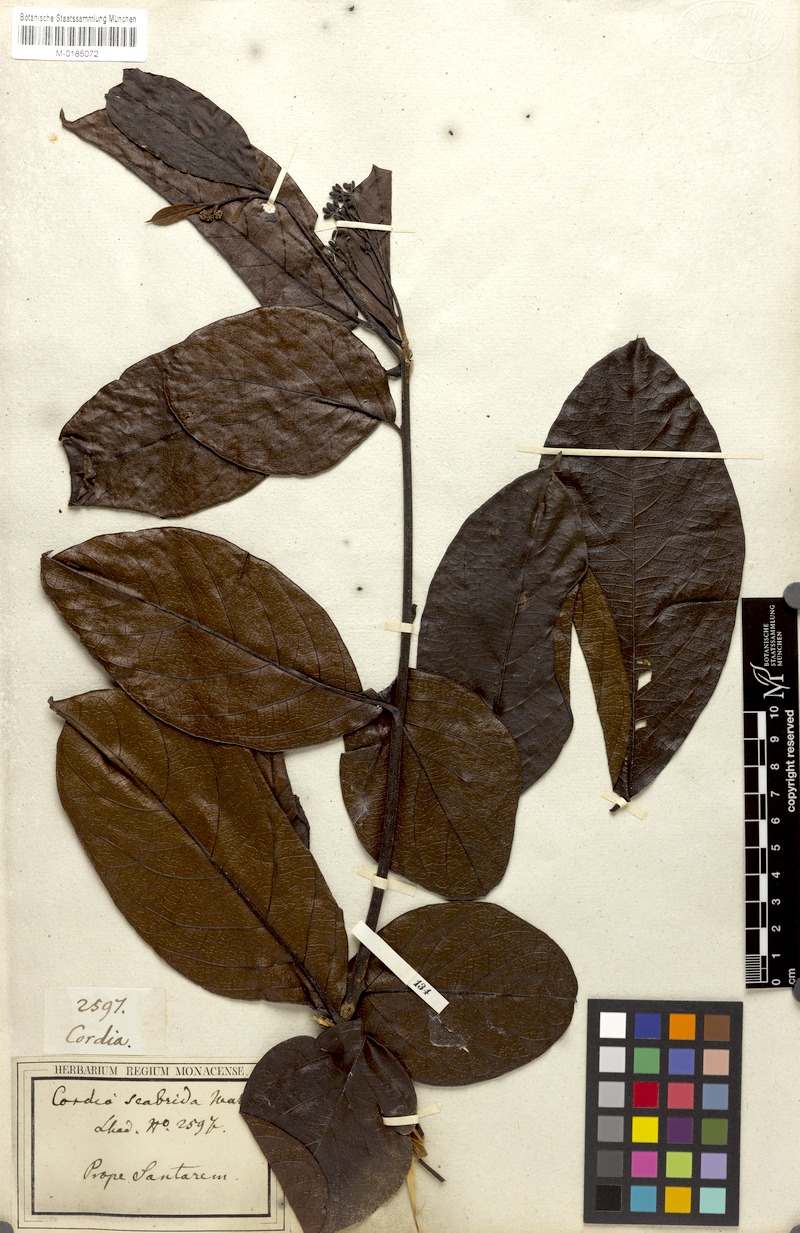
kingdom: Plantae
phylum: Tracheophyta
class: Magnoliopsida
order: Boraginales
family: Cordiaceae
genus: Cordia
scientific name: Cordia exaltata
